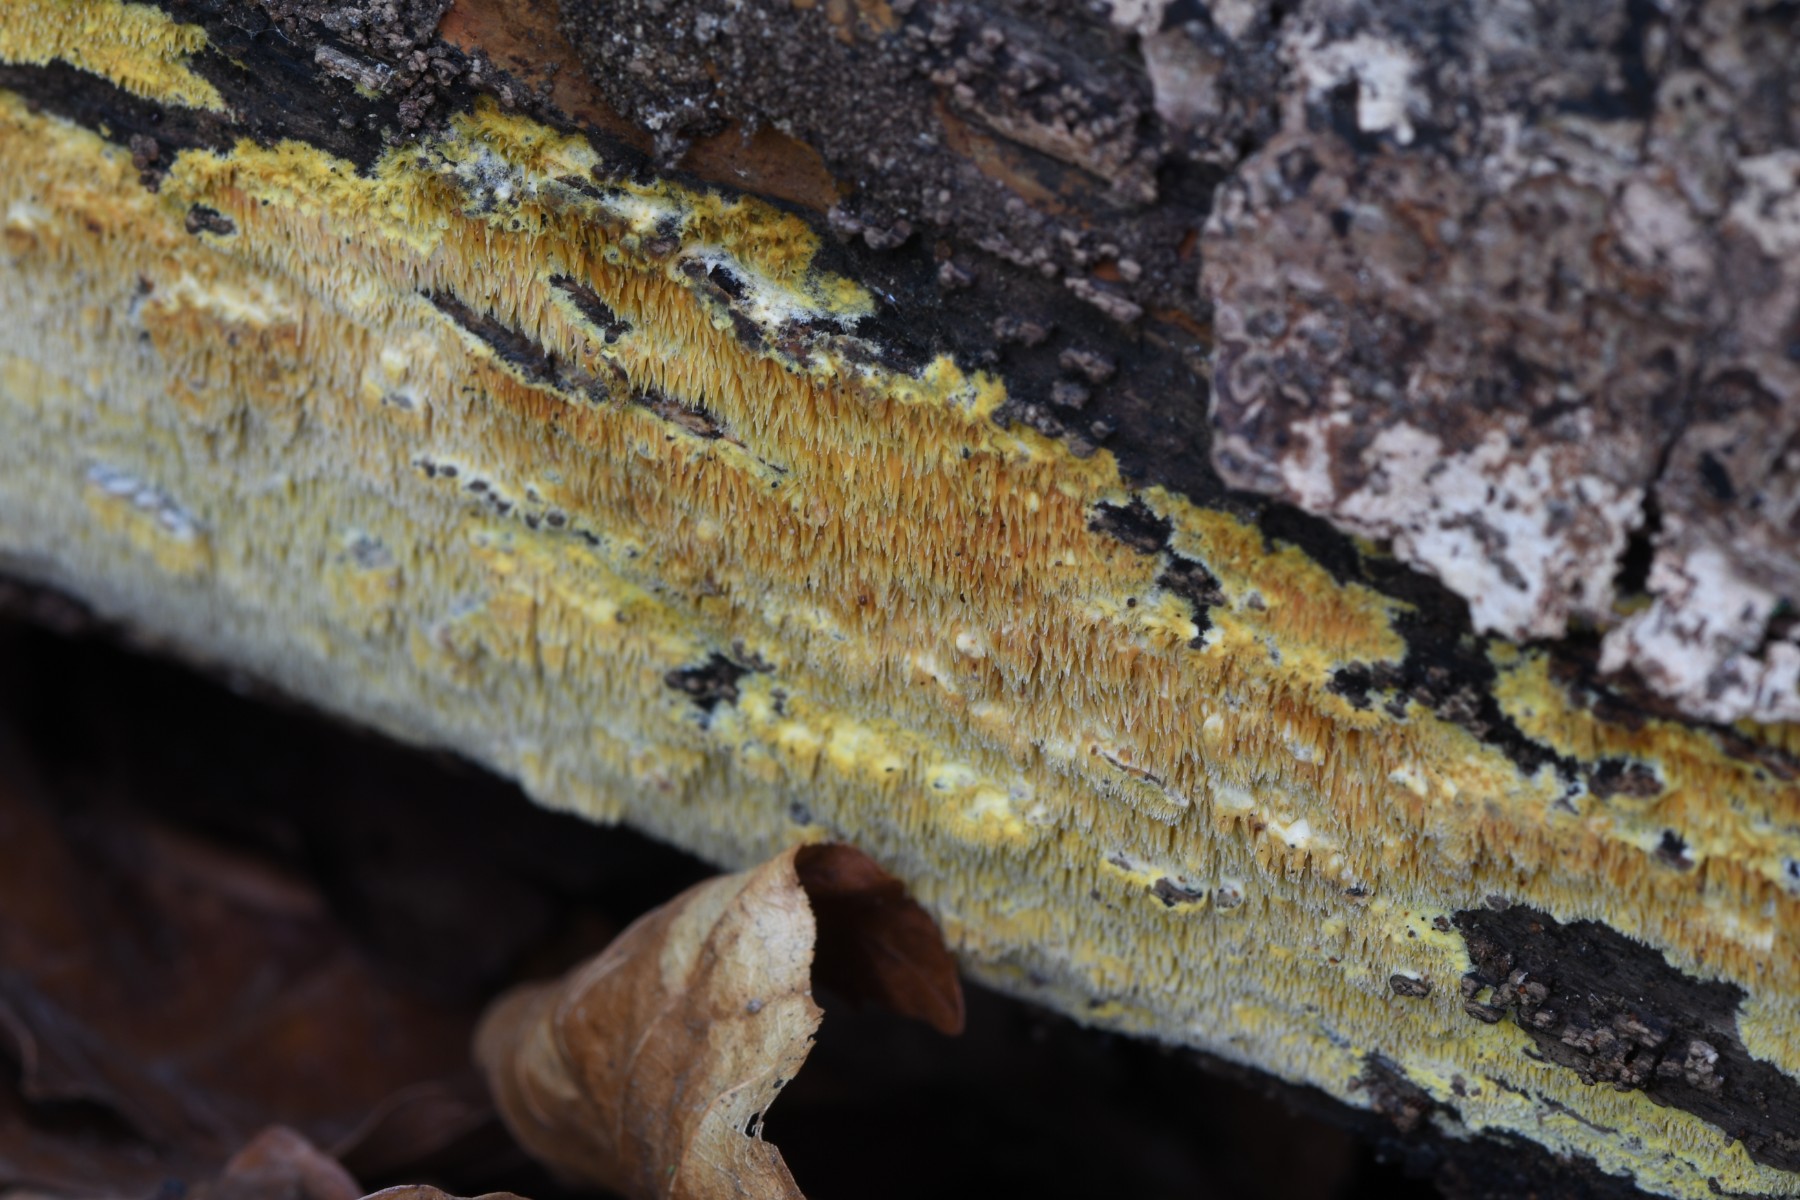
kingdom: Fungi
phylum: Basidiomycota
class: Agaricomycetes
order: Polyporales
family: Meruliaceae
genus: Phlebia
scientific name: Phlebia
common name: åresvamp
